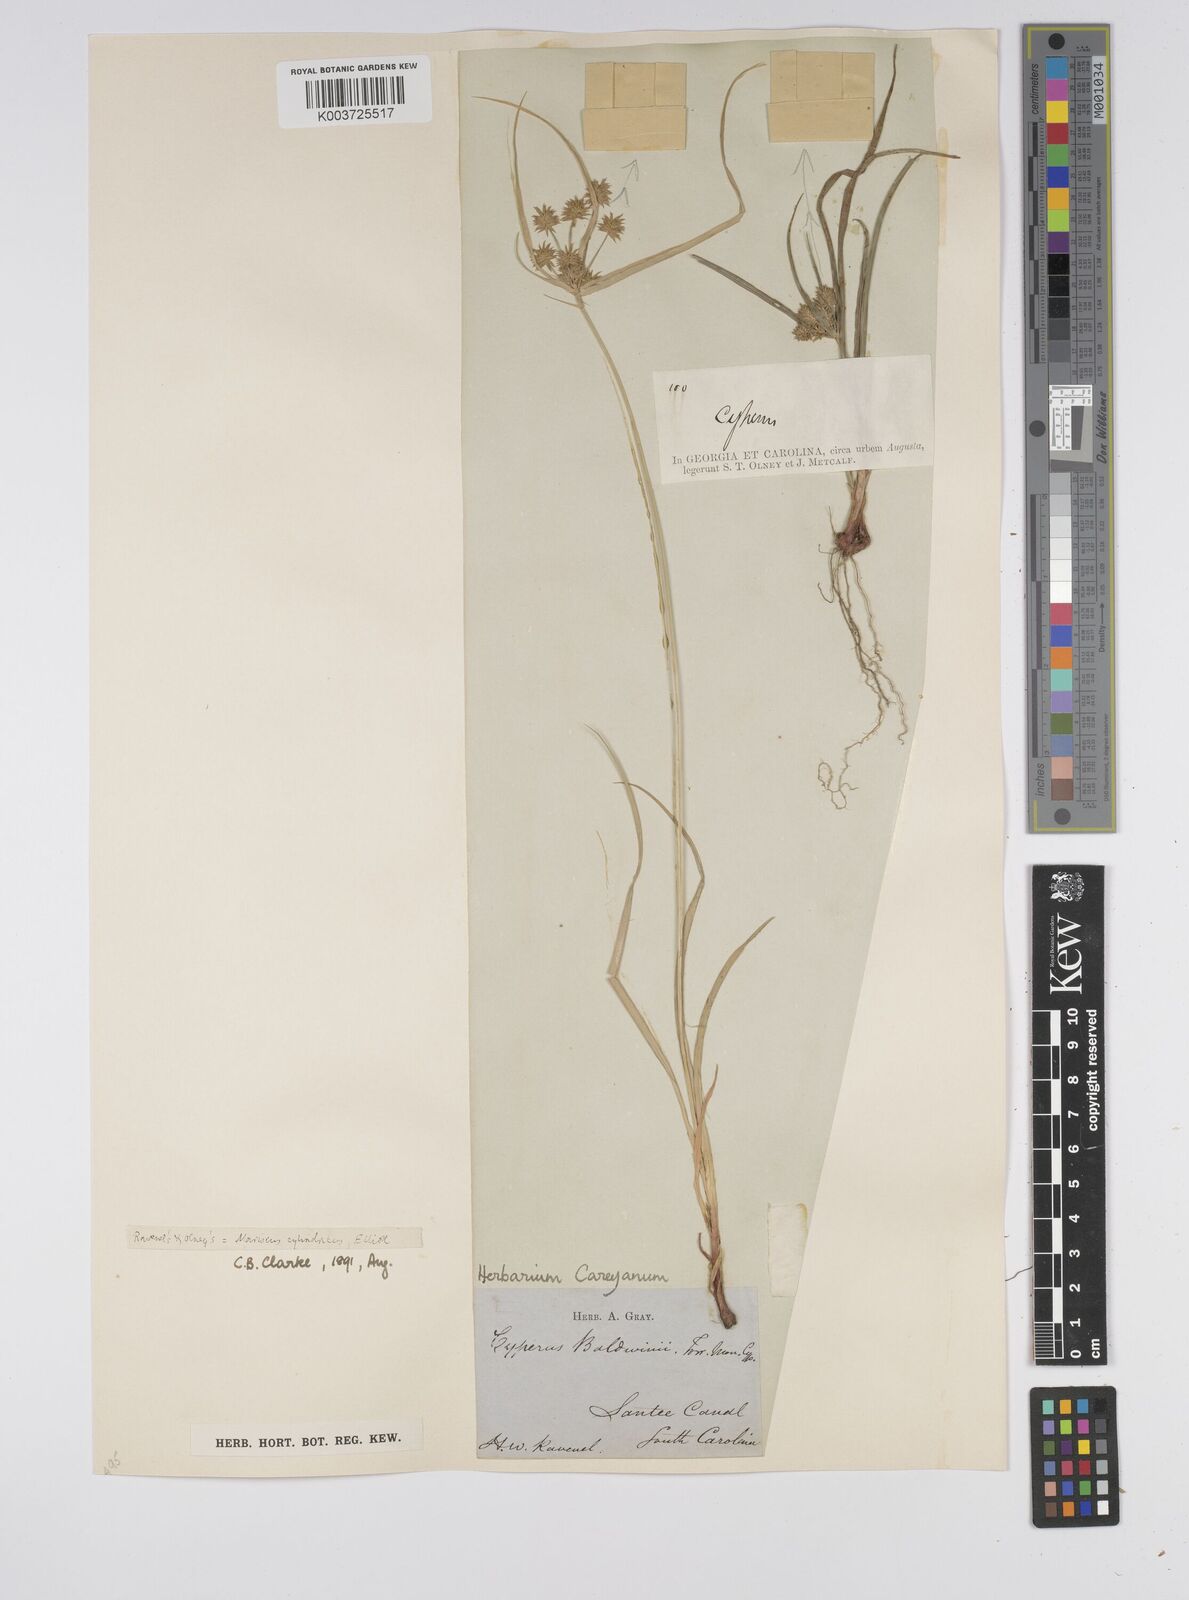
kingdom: Plantae
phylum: Tracheophyta
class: Liliopsida
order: Poales
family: Cyperaceae
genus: Cyperus
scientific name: Cyperus retrorsus
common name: Pinebarren flat sedge
